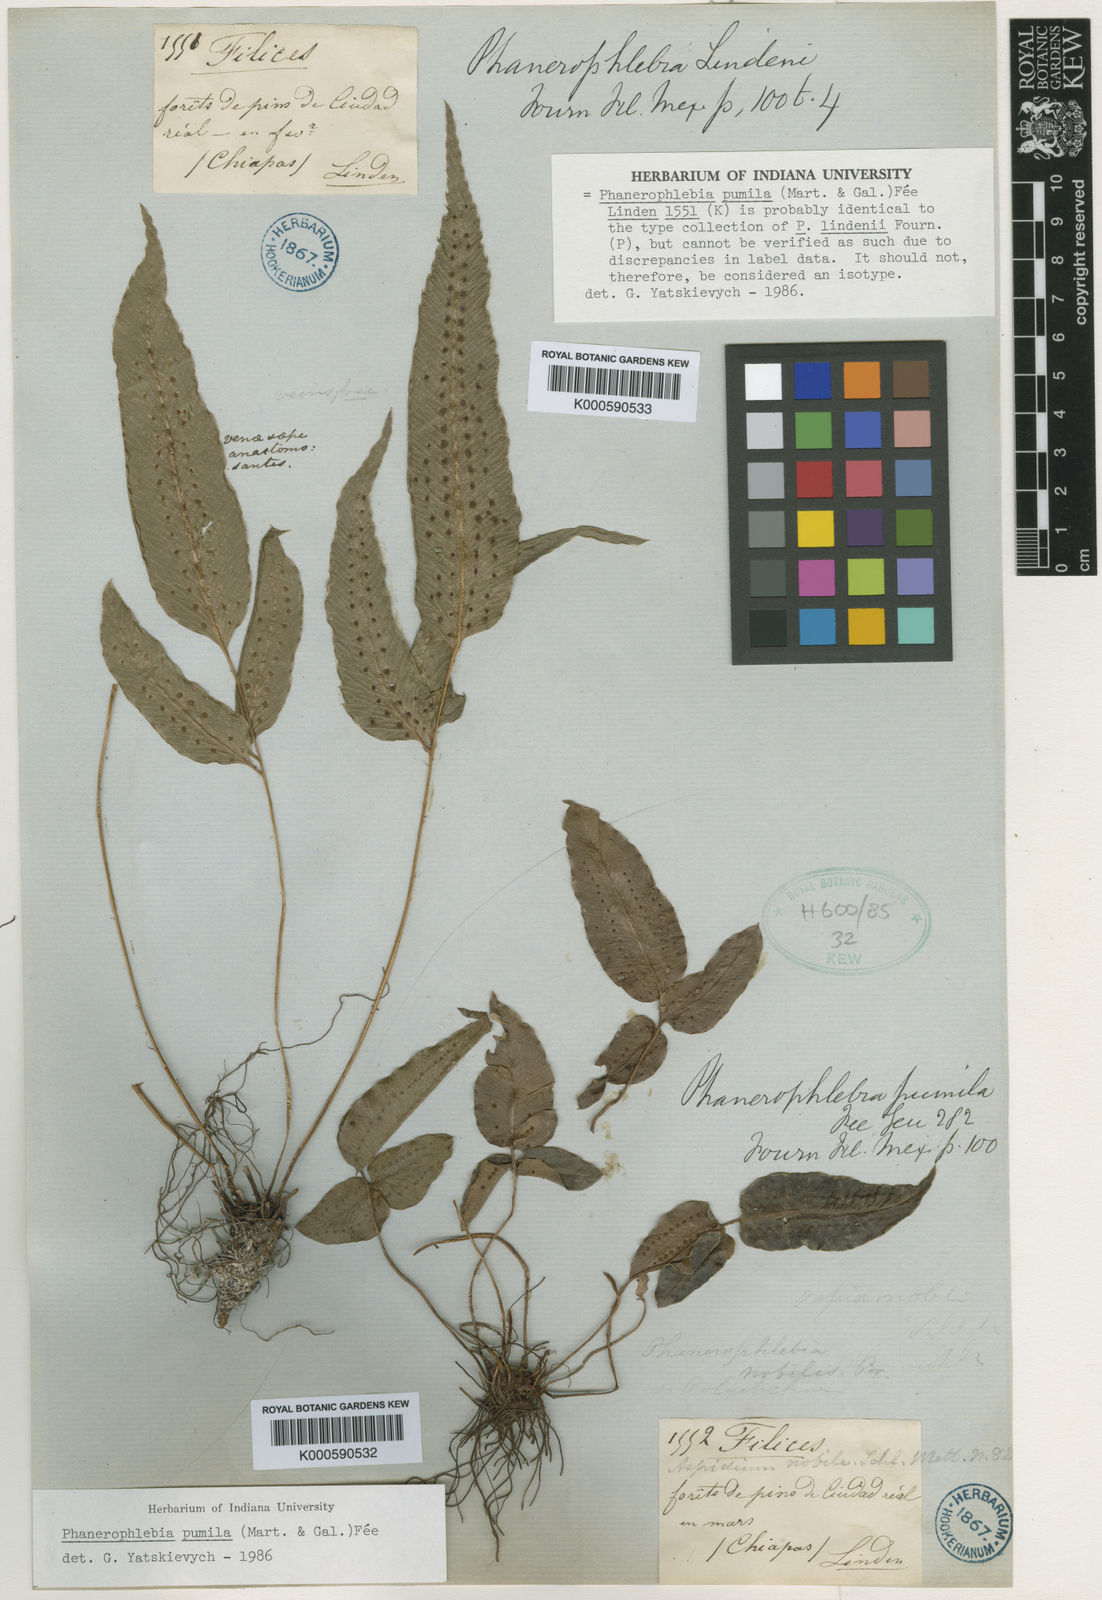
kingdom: Plantae
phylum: Tracheophyta
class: Polypodiopsida
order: Polypodiales
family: Dryopteridaceae
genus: Phanerophlebia
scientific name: Phanerophlebia
